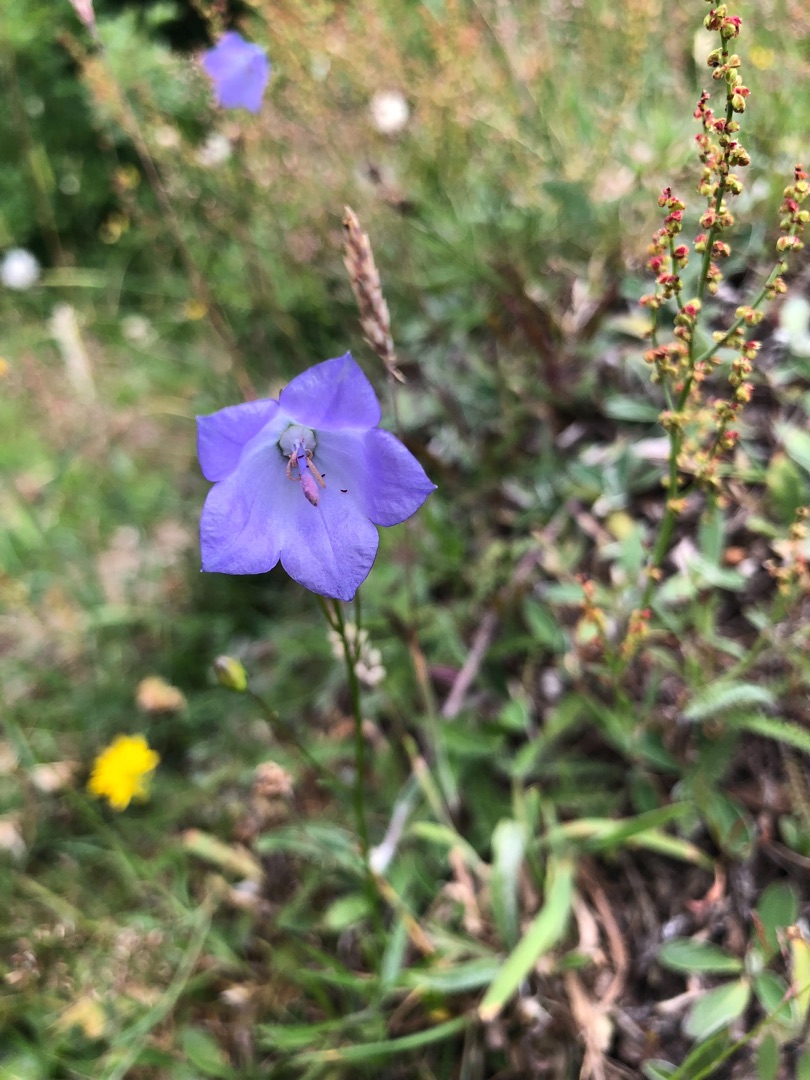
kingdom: Plantae
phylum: Tracheophyta
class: Magnoliopsida
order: Asterales
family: Campanulaceae
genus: Campanula
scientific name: Campanula rotundifolia
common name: Liden klokke
